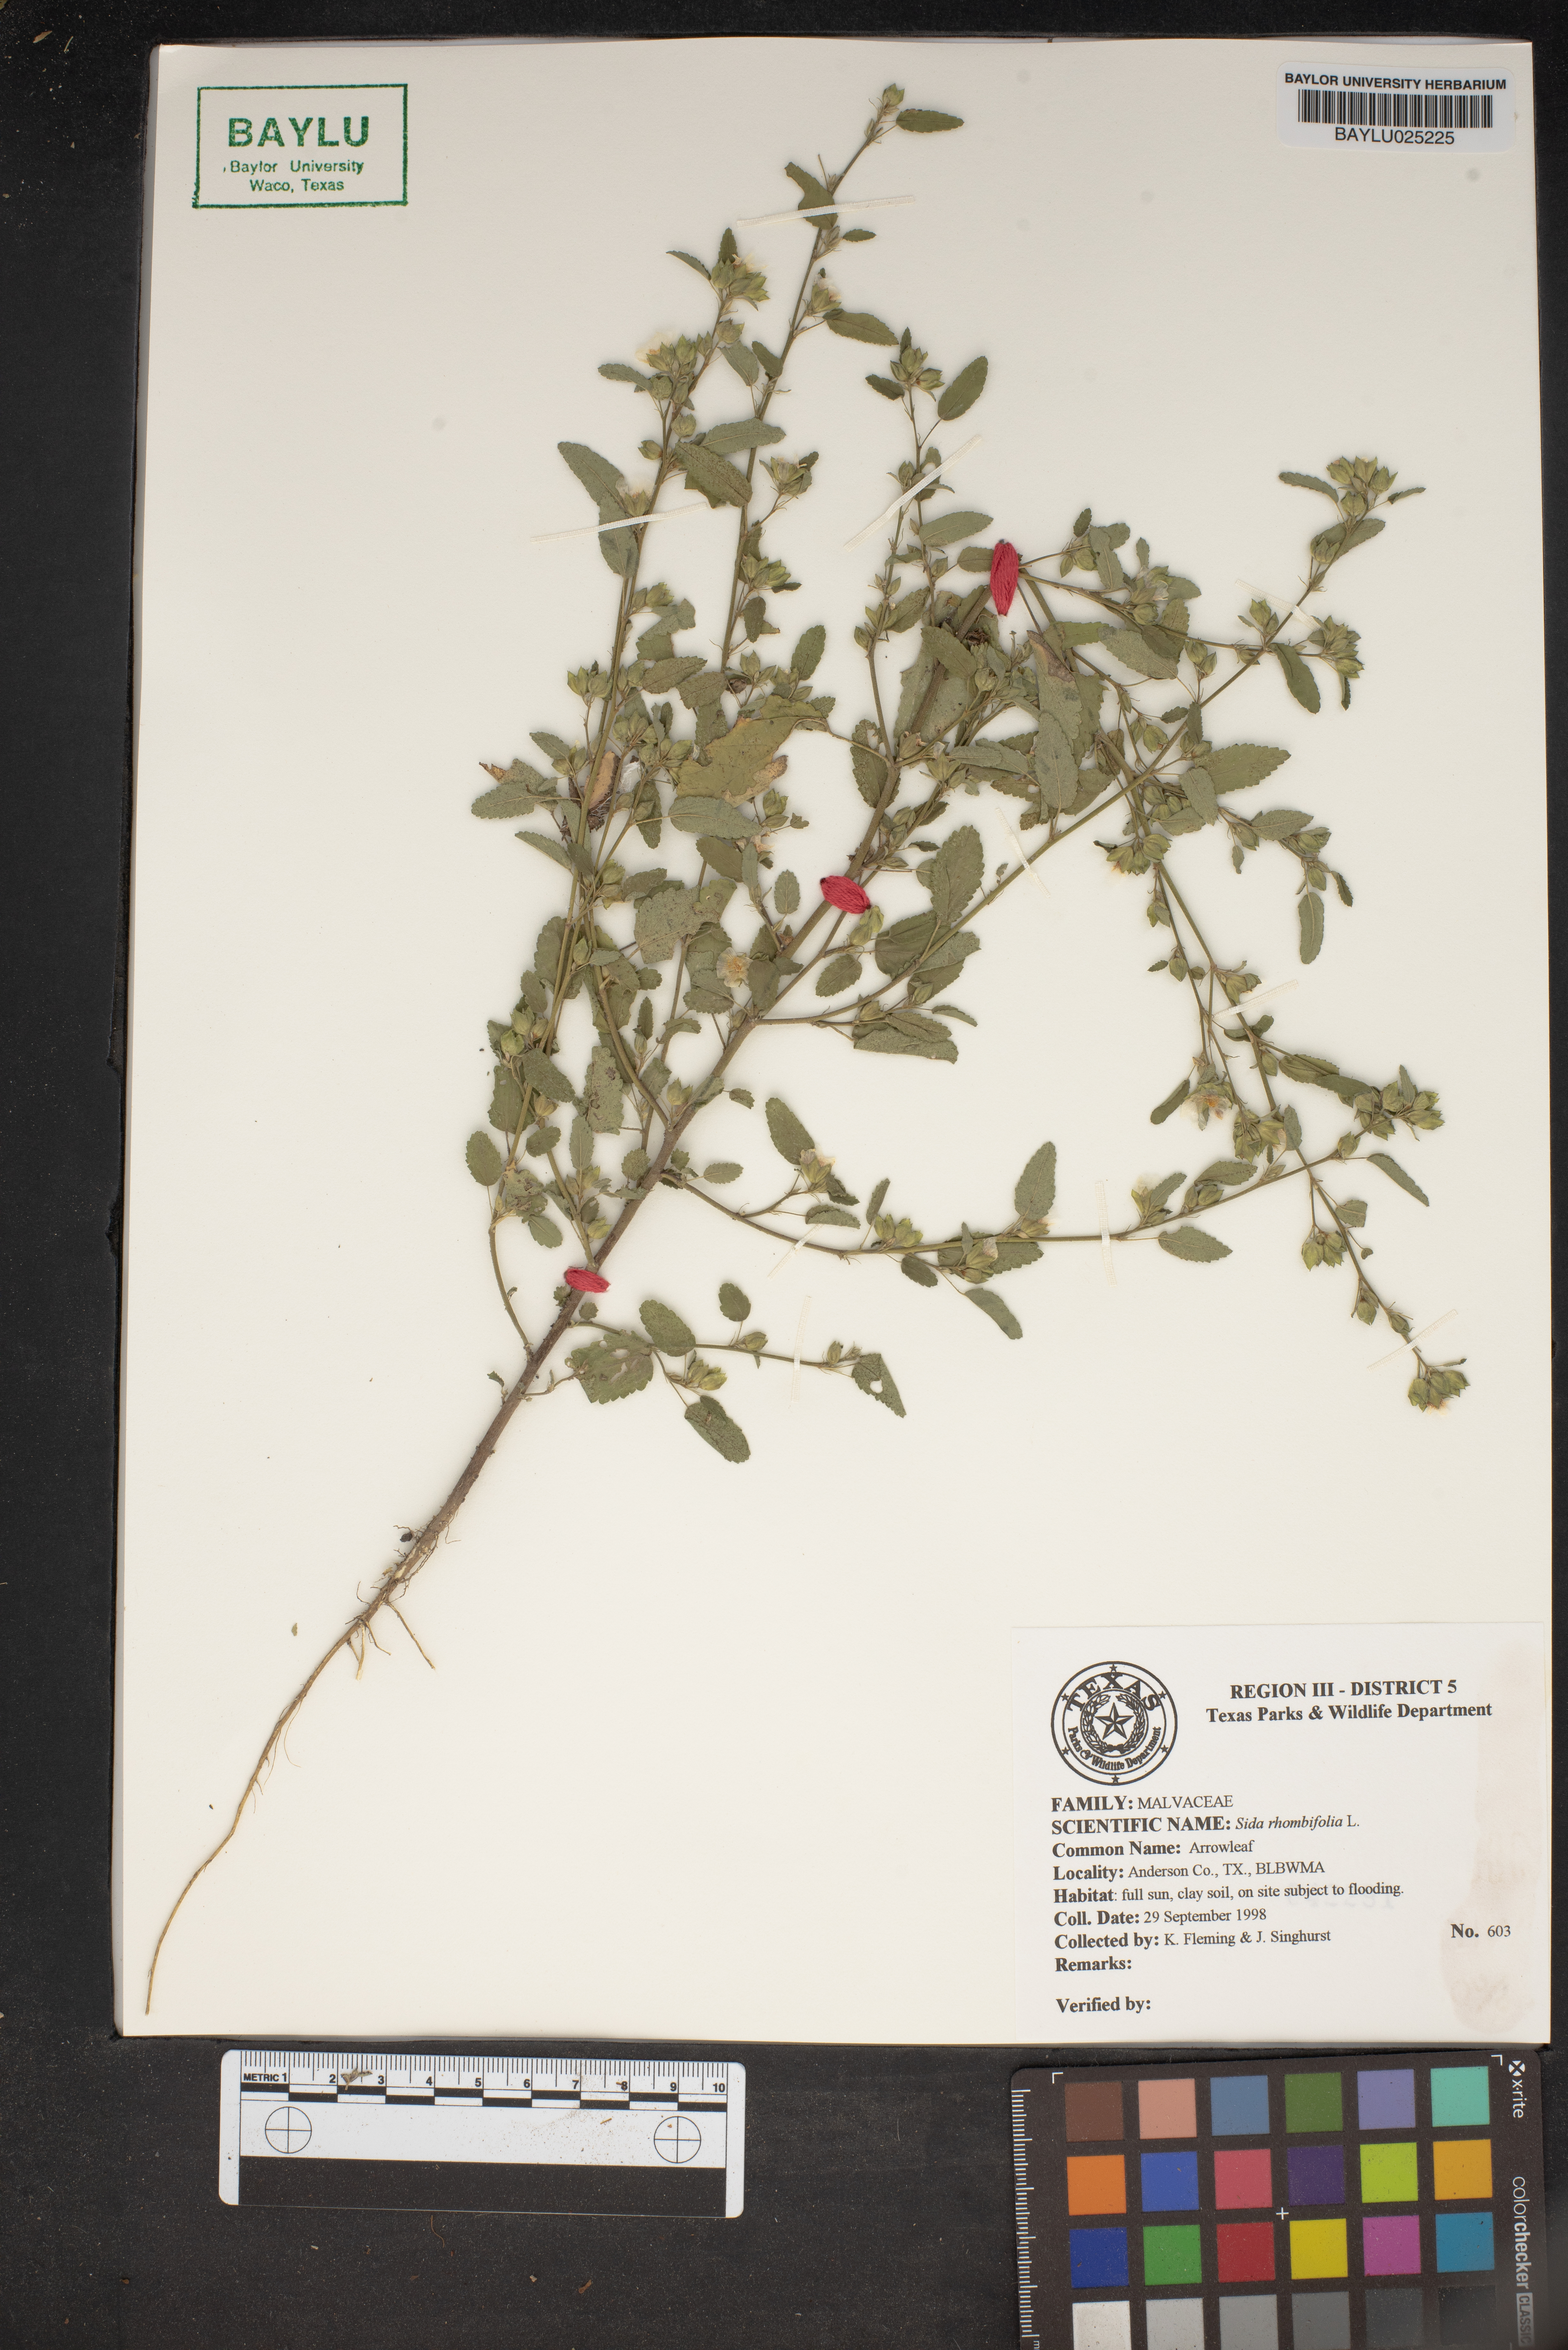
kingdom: Plantae
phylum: Tracheophyta
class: Magnoliopsida
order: Malvales
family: Malvaceae
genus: Sida
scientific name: Sida rhombifolia
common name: Queensland-hemp
